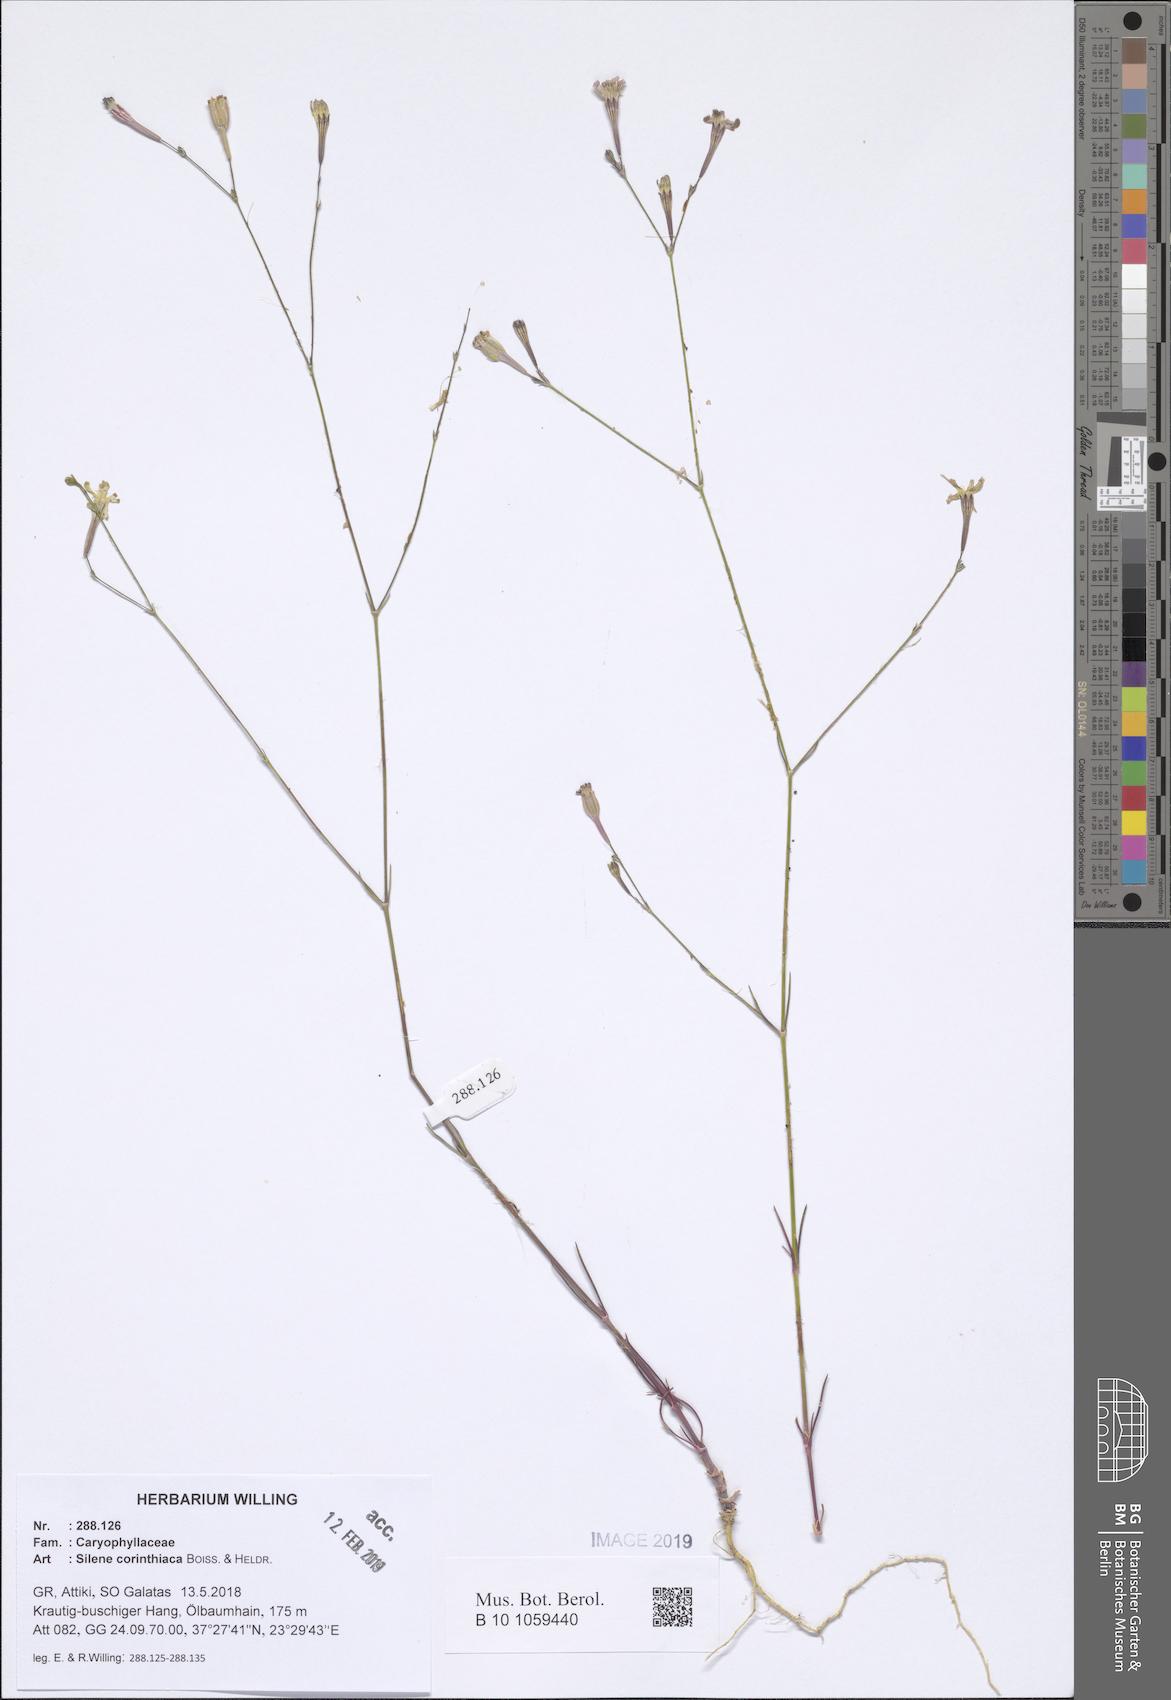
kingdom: Plantae
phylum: Tracheophyta
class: Magnoliopsida
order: Caryophyllales
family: Caryophyllaceae
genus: Silene
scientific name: Silene corinthiaca
